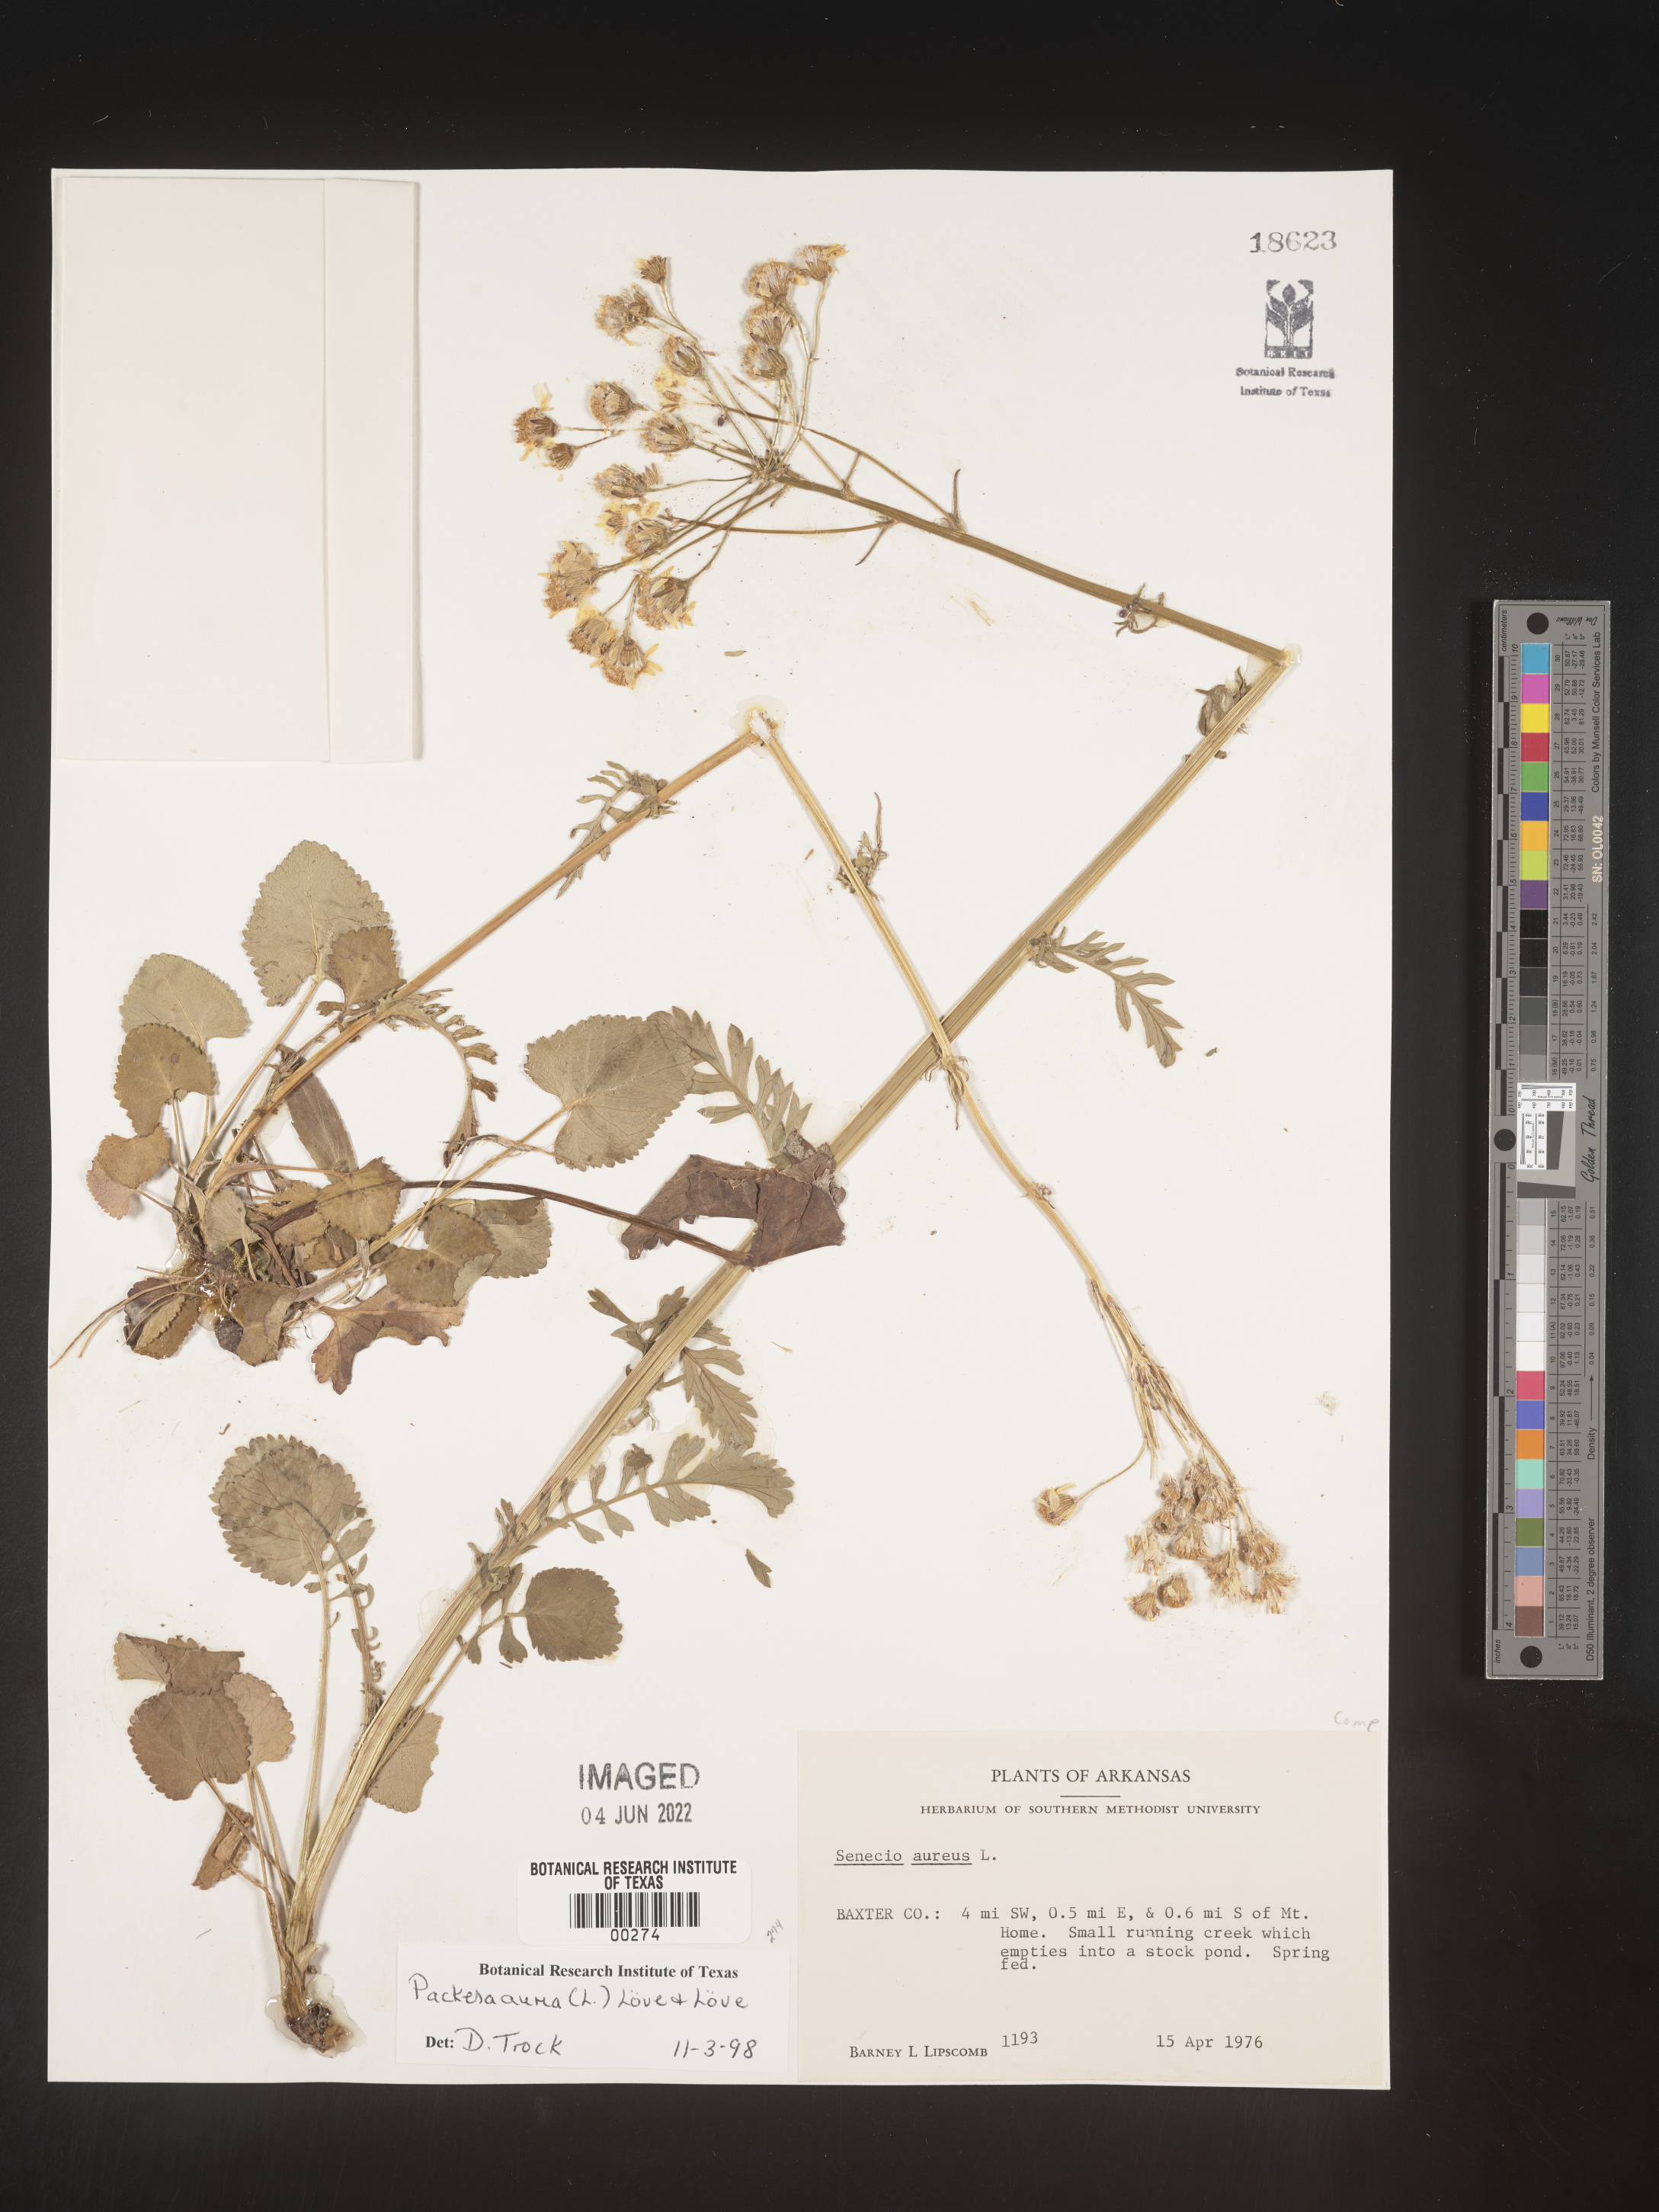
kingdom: Plantae
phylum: Tracheophyta
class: Magnoliopsida
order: Asterales
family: Asteraceae
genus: Packera
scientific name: Packera aurea
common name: Golden groundsel
